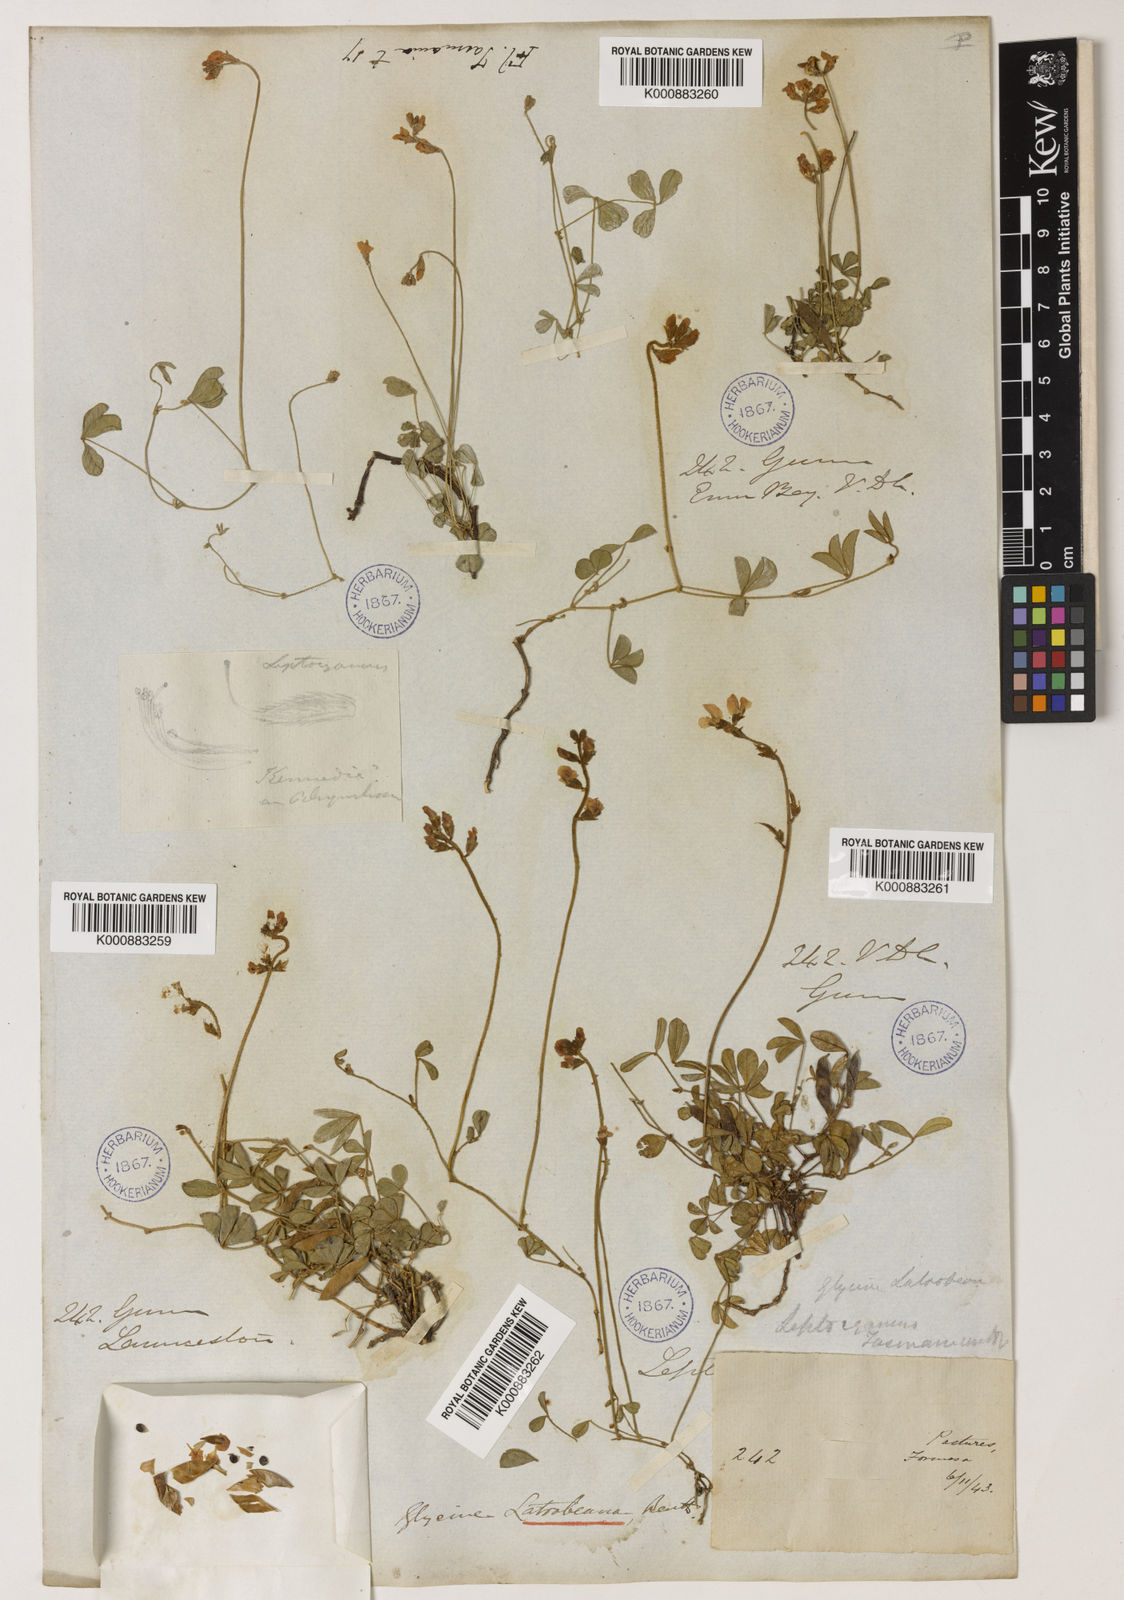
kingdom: Plantae
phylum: Tracheophyta
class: Magnoliopsida
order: Fabales
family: Fabaceae
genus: Glycine
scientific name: Glycine latrobeana
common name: Clover glycine
